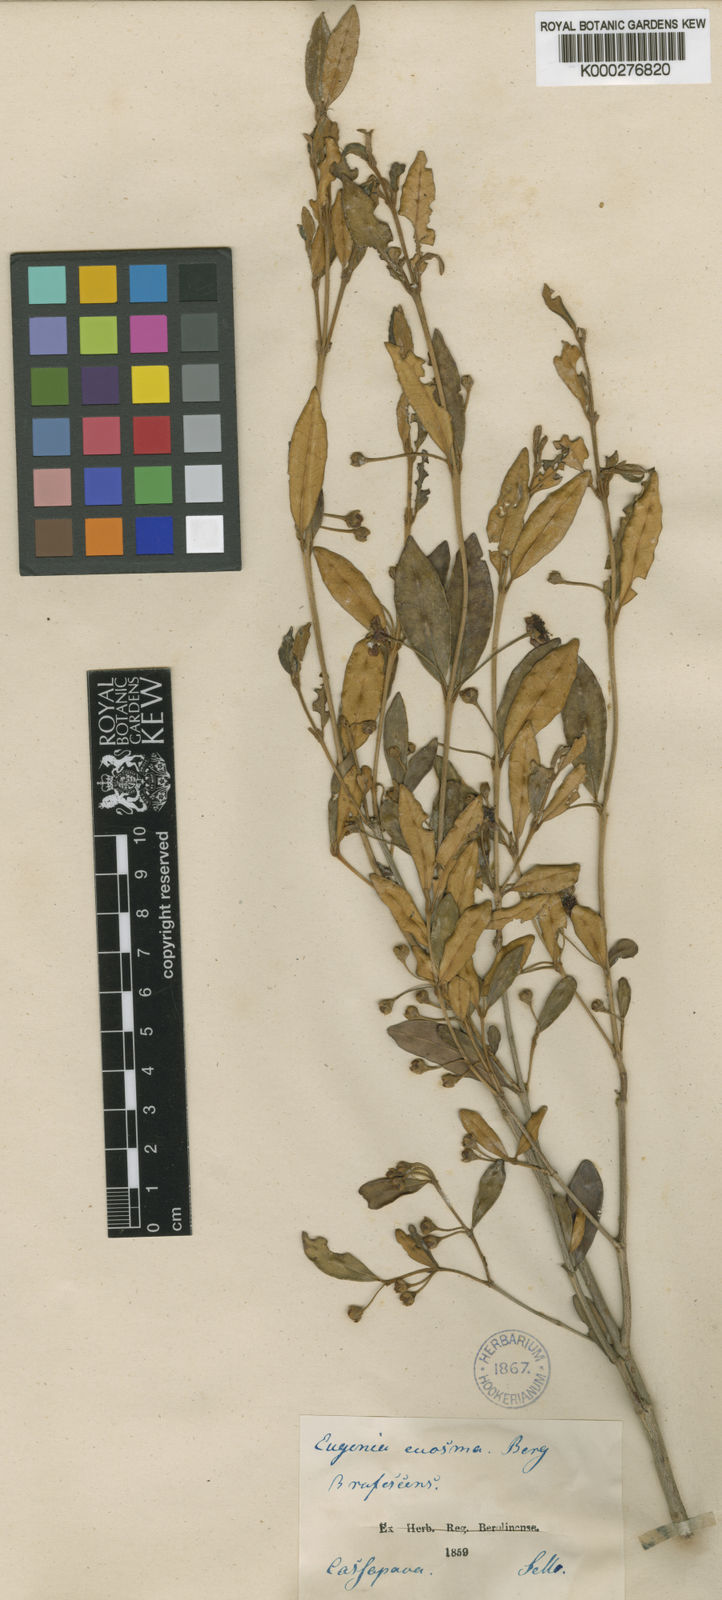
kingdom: Plantae
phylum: Tracheophyta
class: Magnoliopsida
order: Myrtales
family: Myrtaceae
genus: Myrceugenia
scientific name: Myrceugenia euosma
